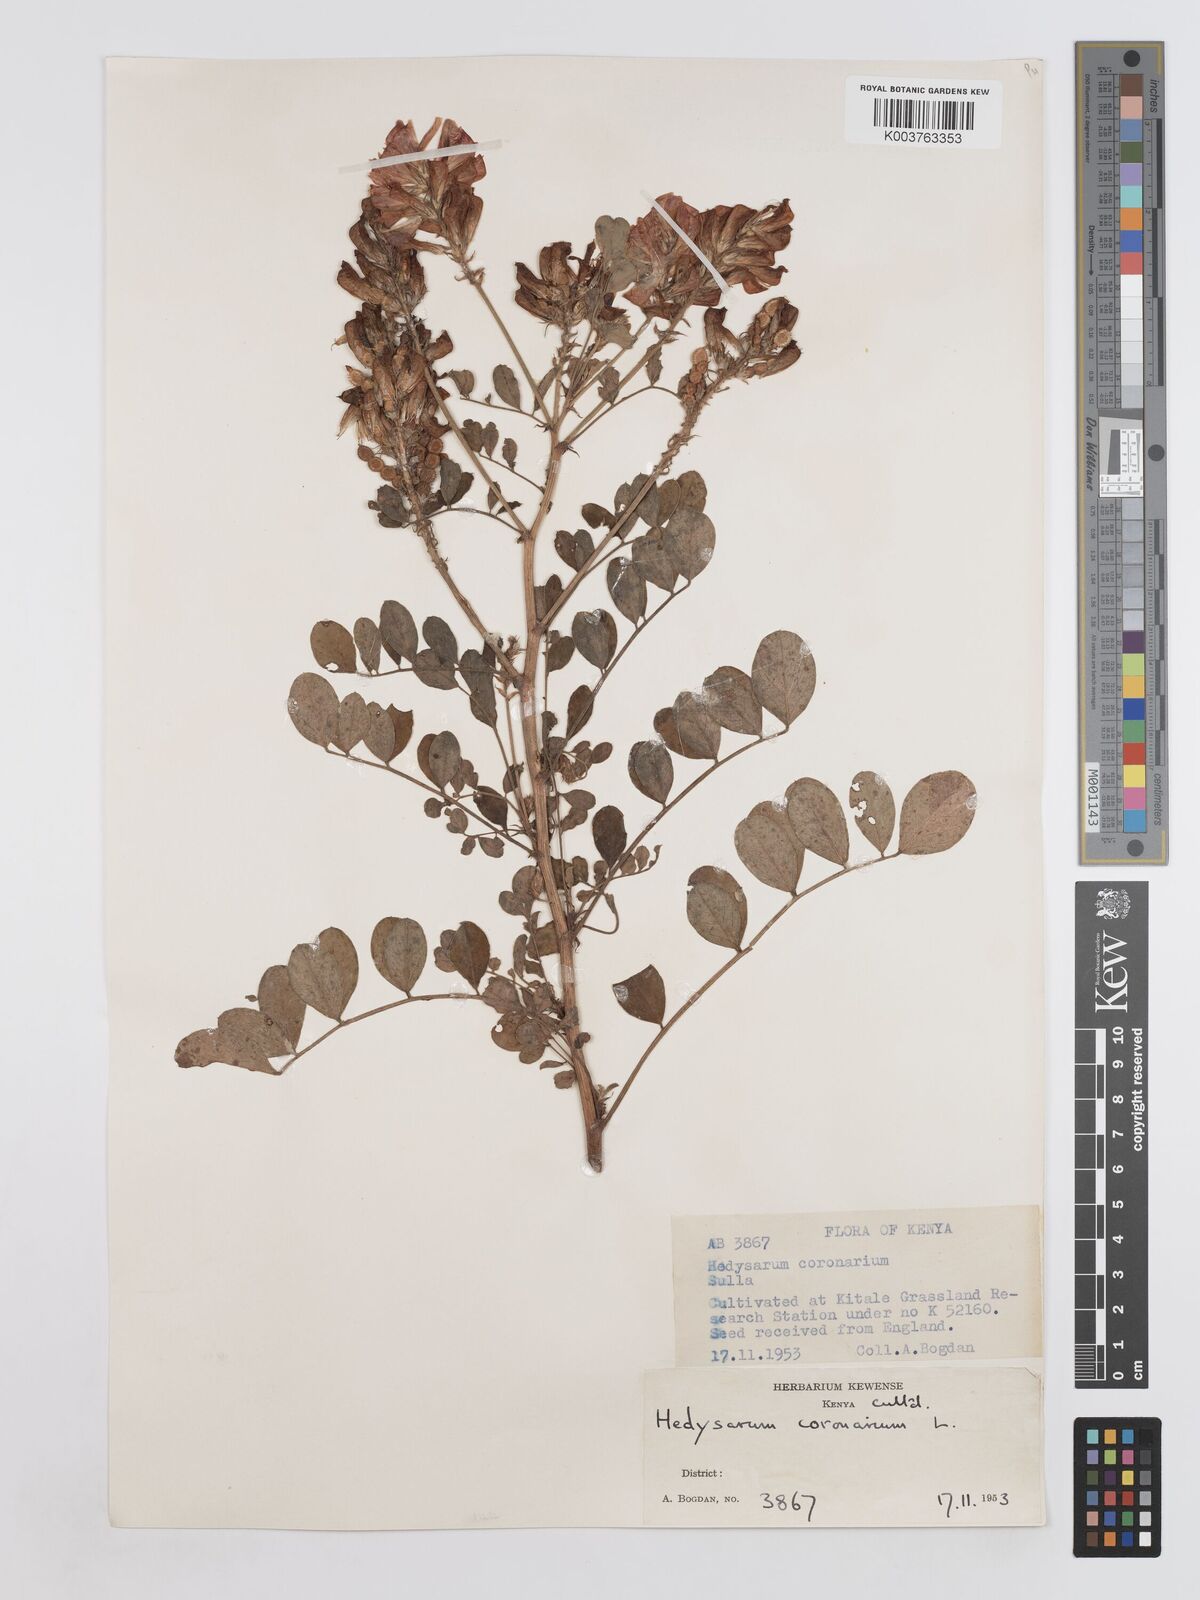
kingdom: Plantae
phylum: Tracheophyta
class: Magnoliopsida
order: Fabales
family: Fabaceae
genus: Sulla
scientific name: Sulla coronaria
